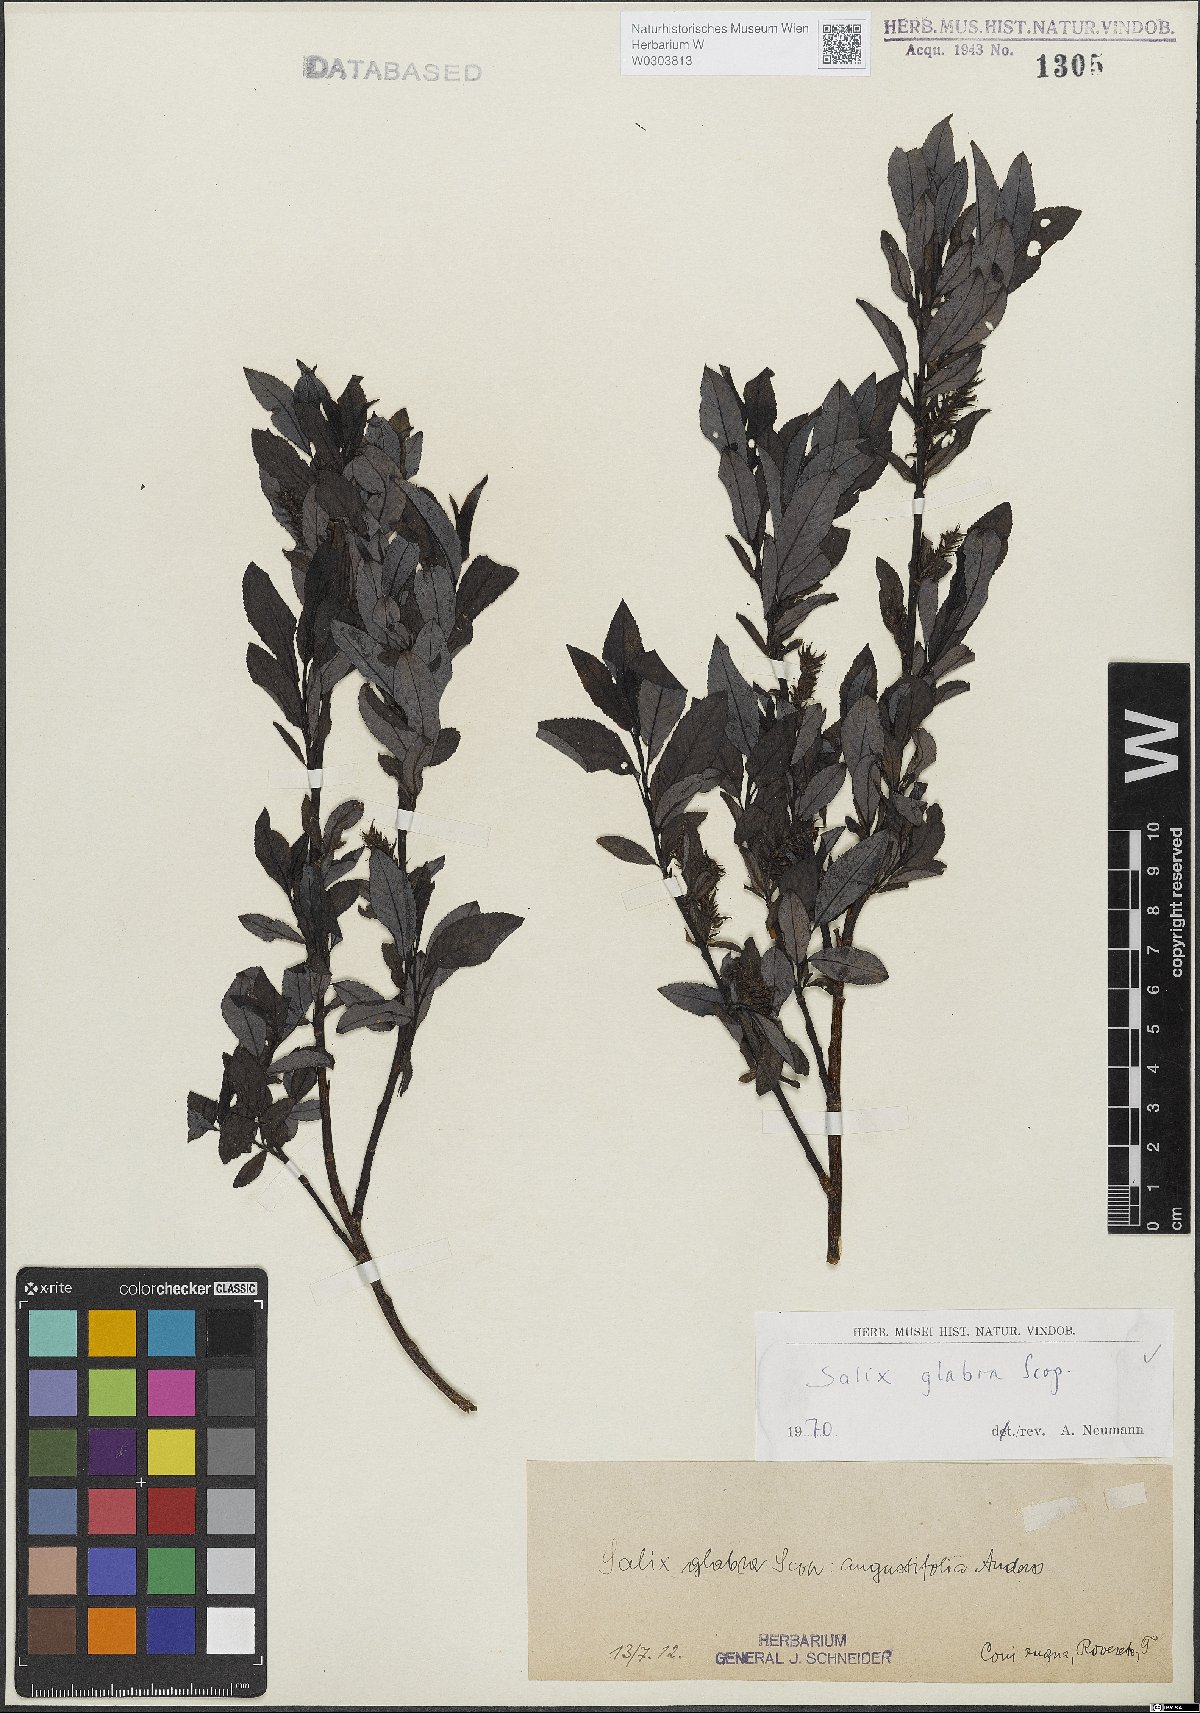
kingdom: Plantae
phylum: Tracheophyta
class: Magnoliopsida
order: Malpighiales
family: Salicaceae
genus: Salix
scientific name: Salix glabra
